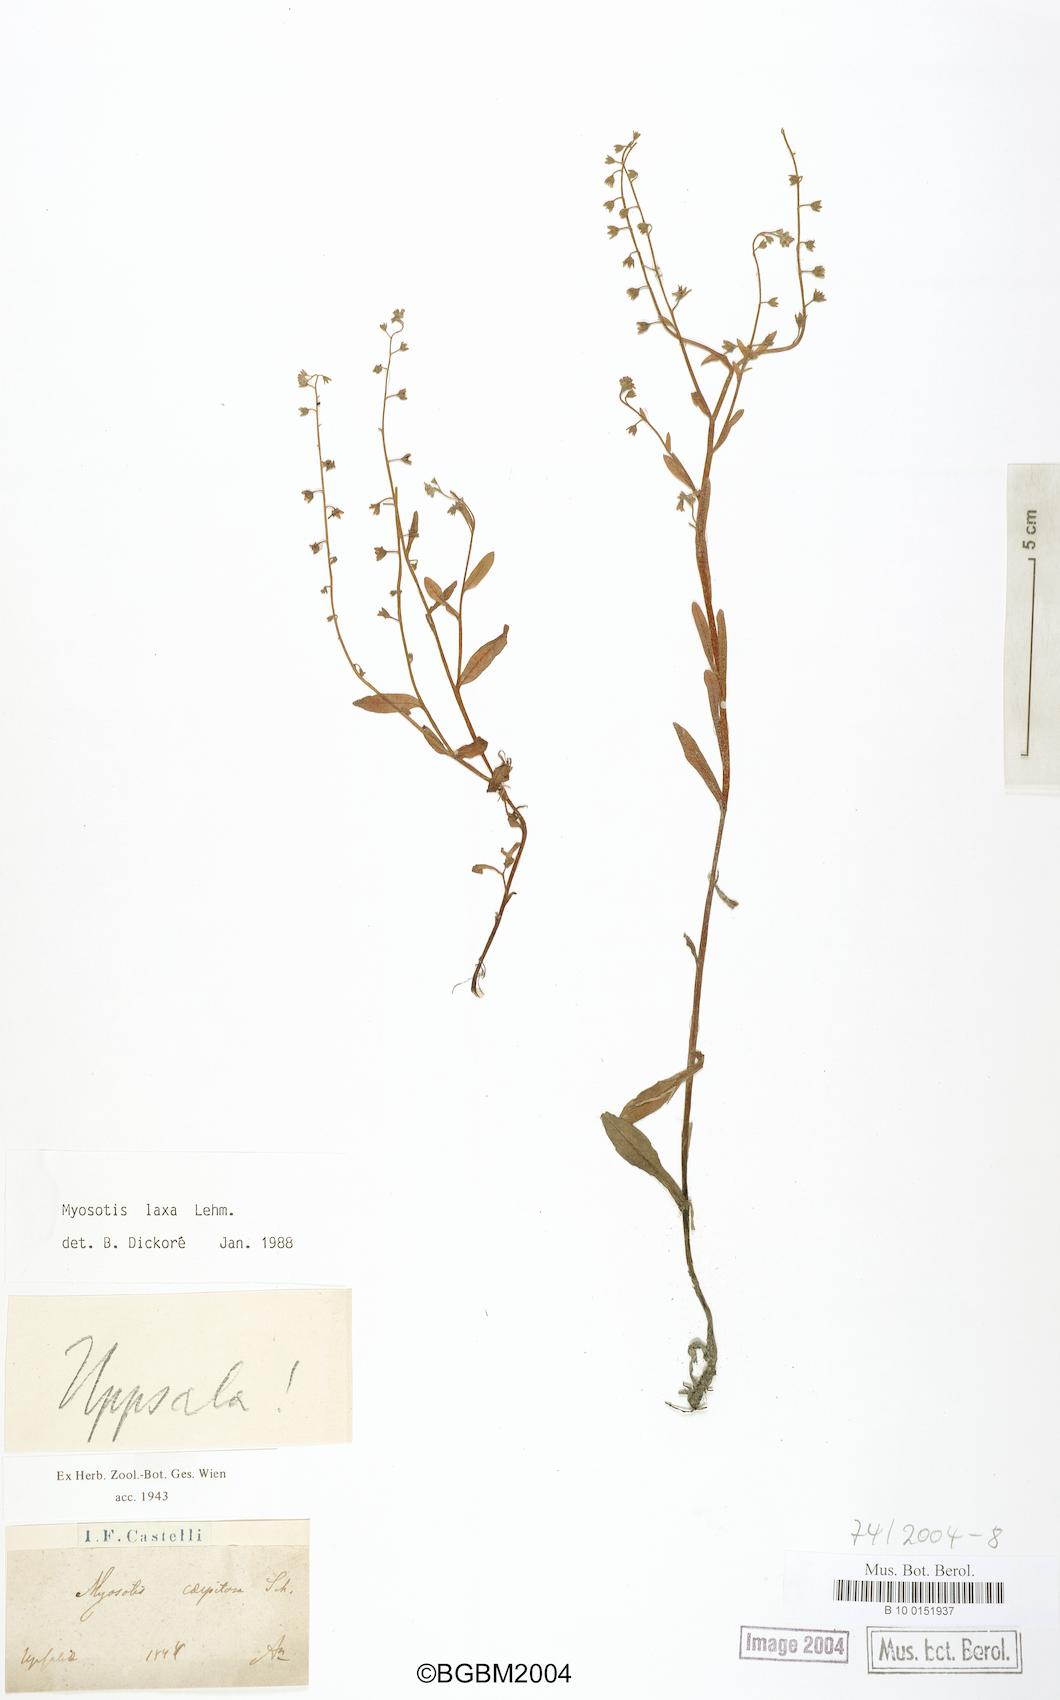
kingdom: Plantae
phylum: Tracheophyta
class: Magnoliopsida
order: Boraginales
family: Boraginaceae
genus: Myosotis
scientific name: Myosotis laxa
